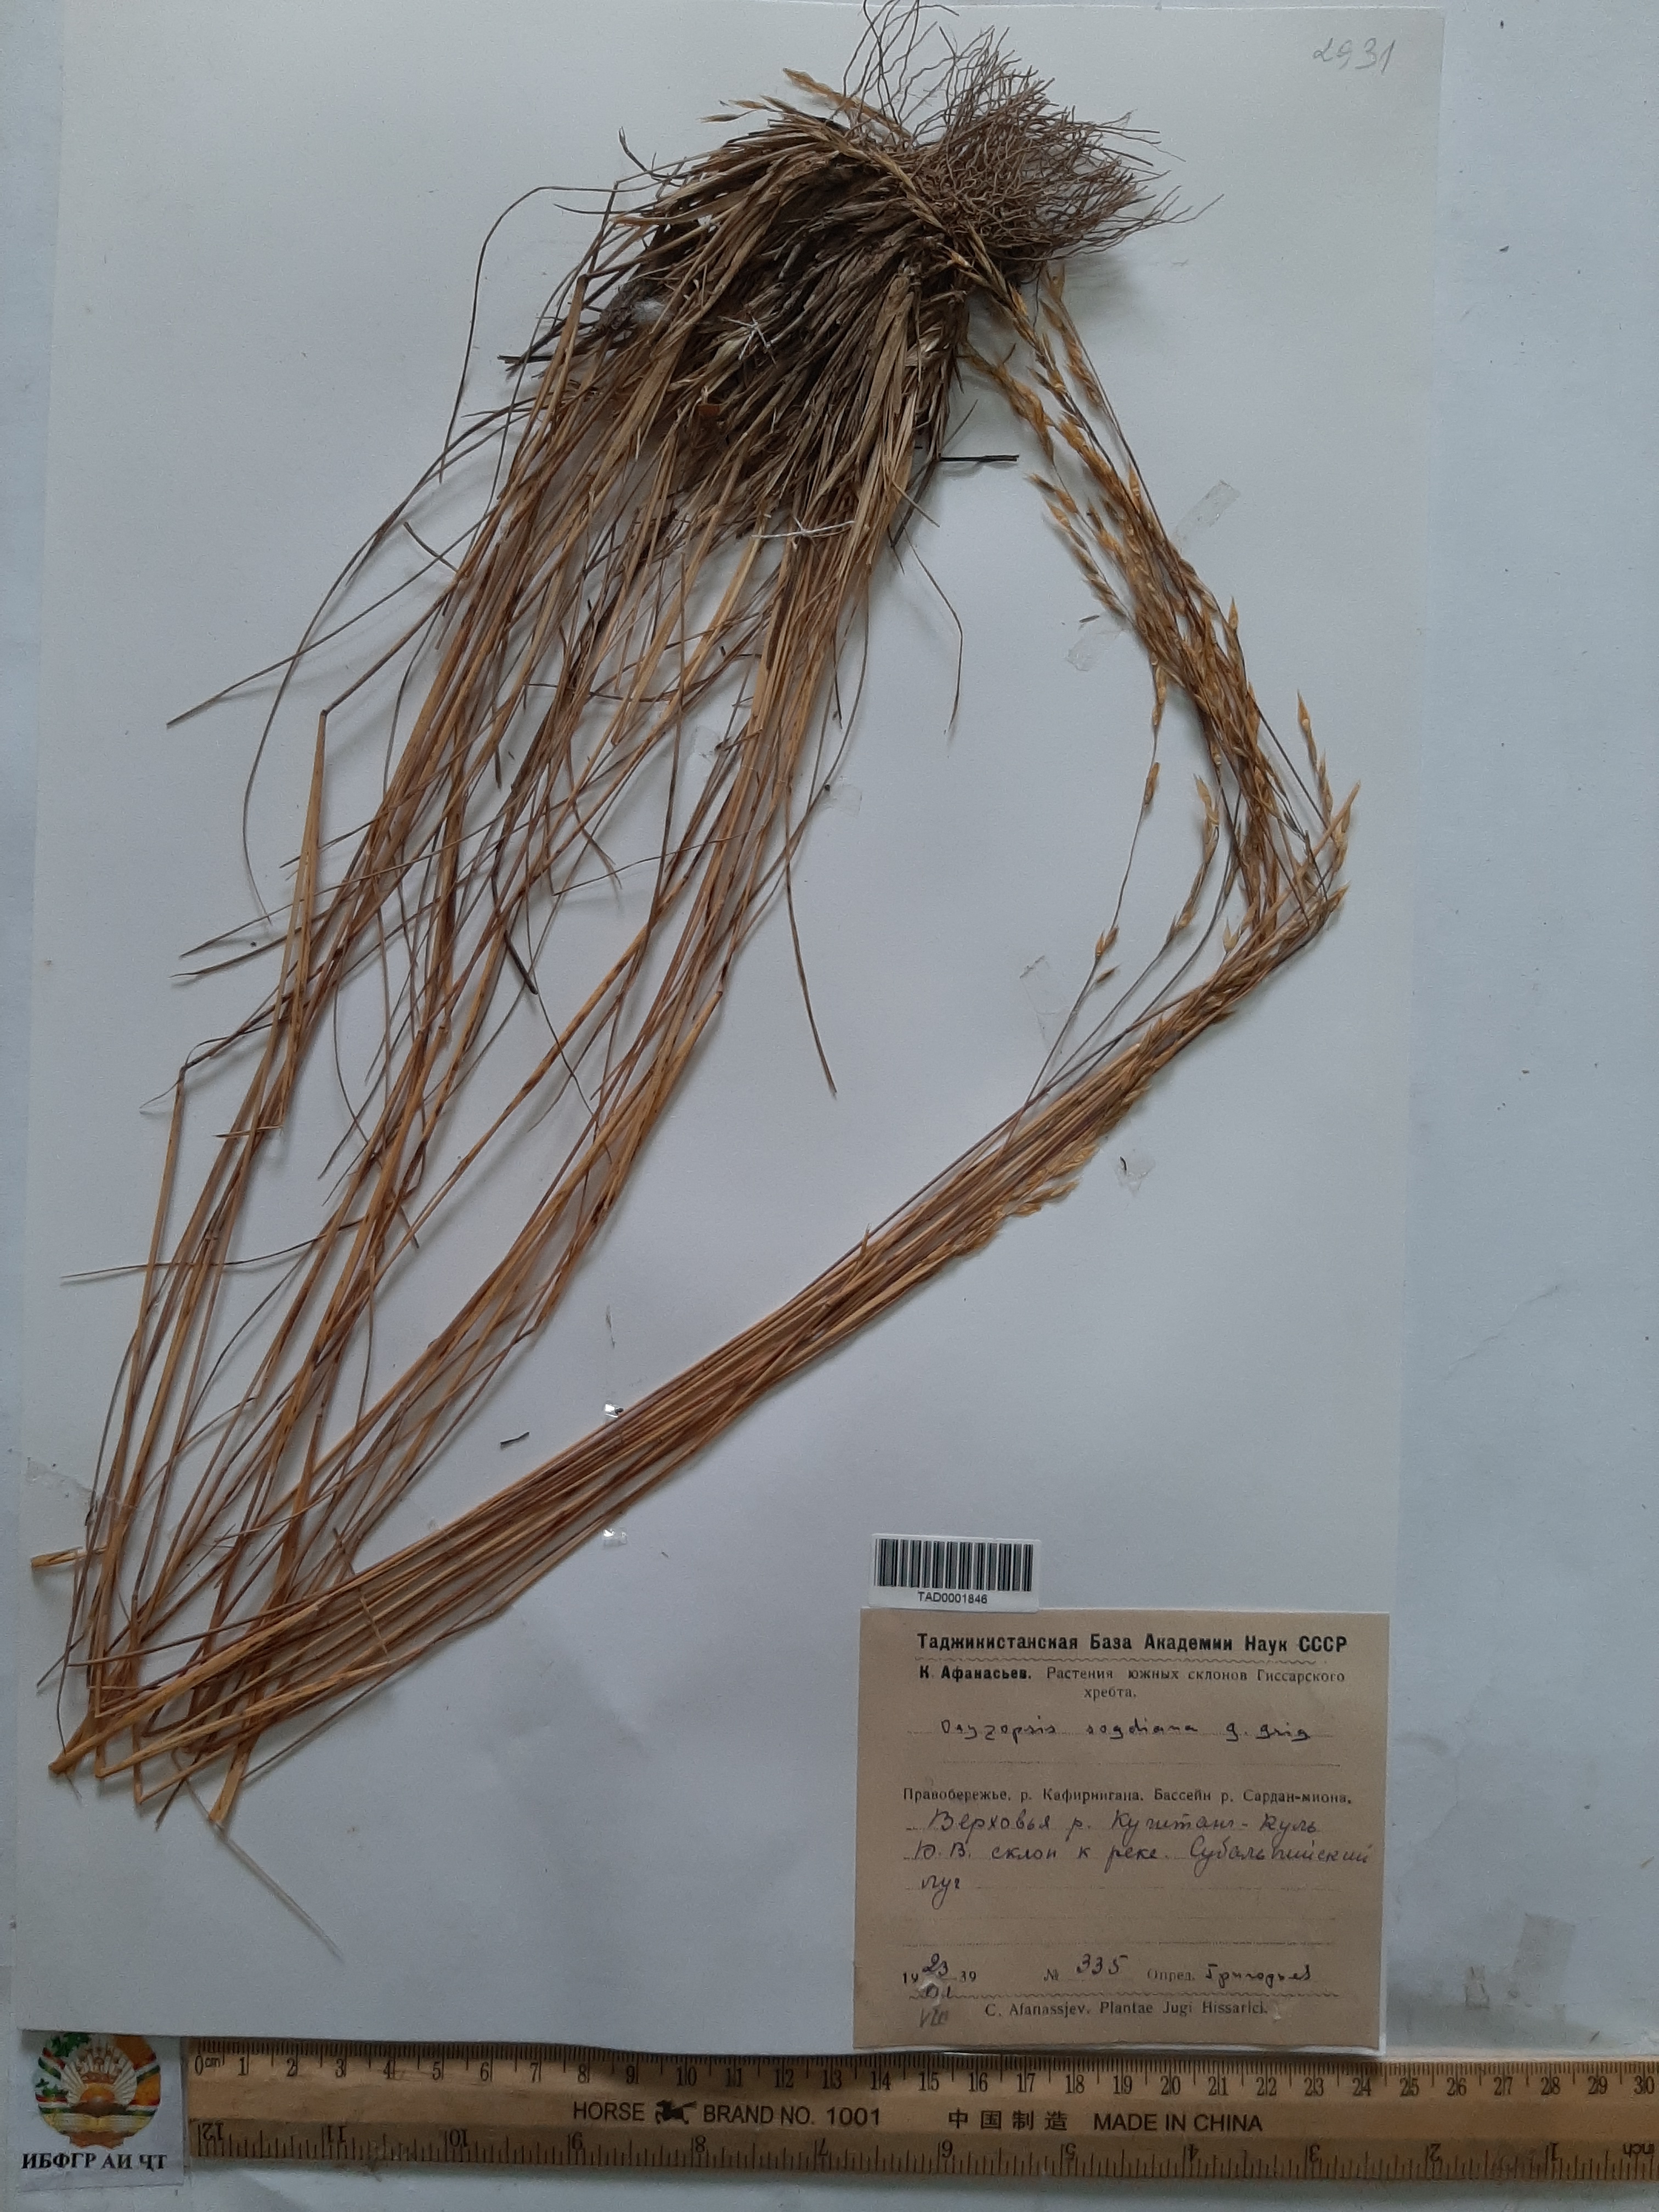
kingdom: Plantae
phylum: Tracheophyta
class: Liliopsida
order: Poales
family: Poaceae
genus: Piptatherum
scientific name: Piptatherum sogdianum
